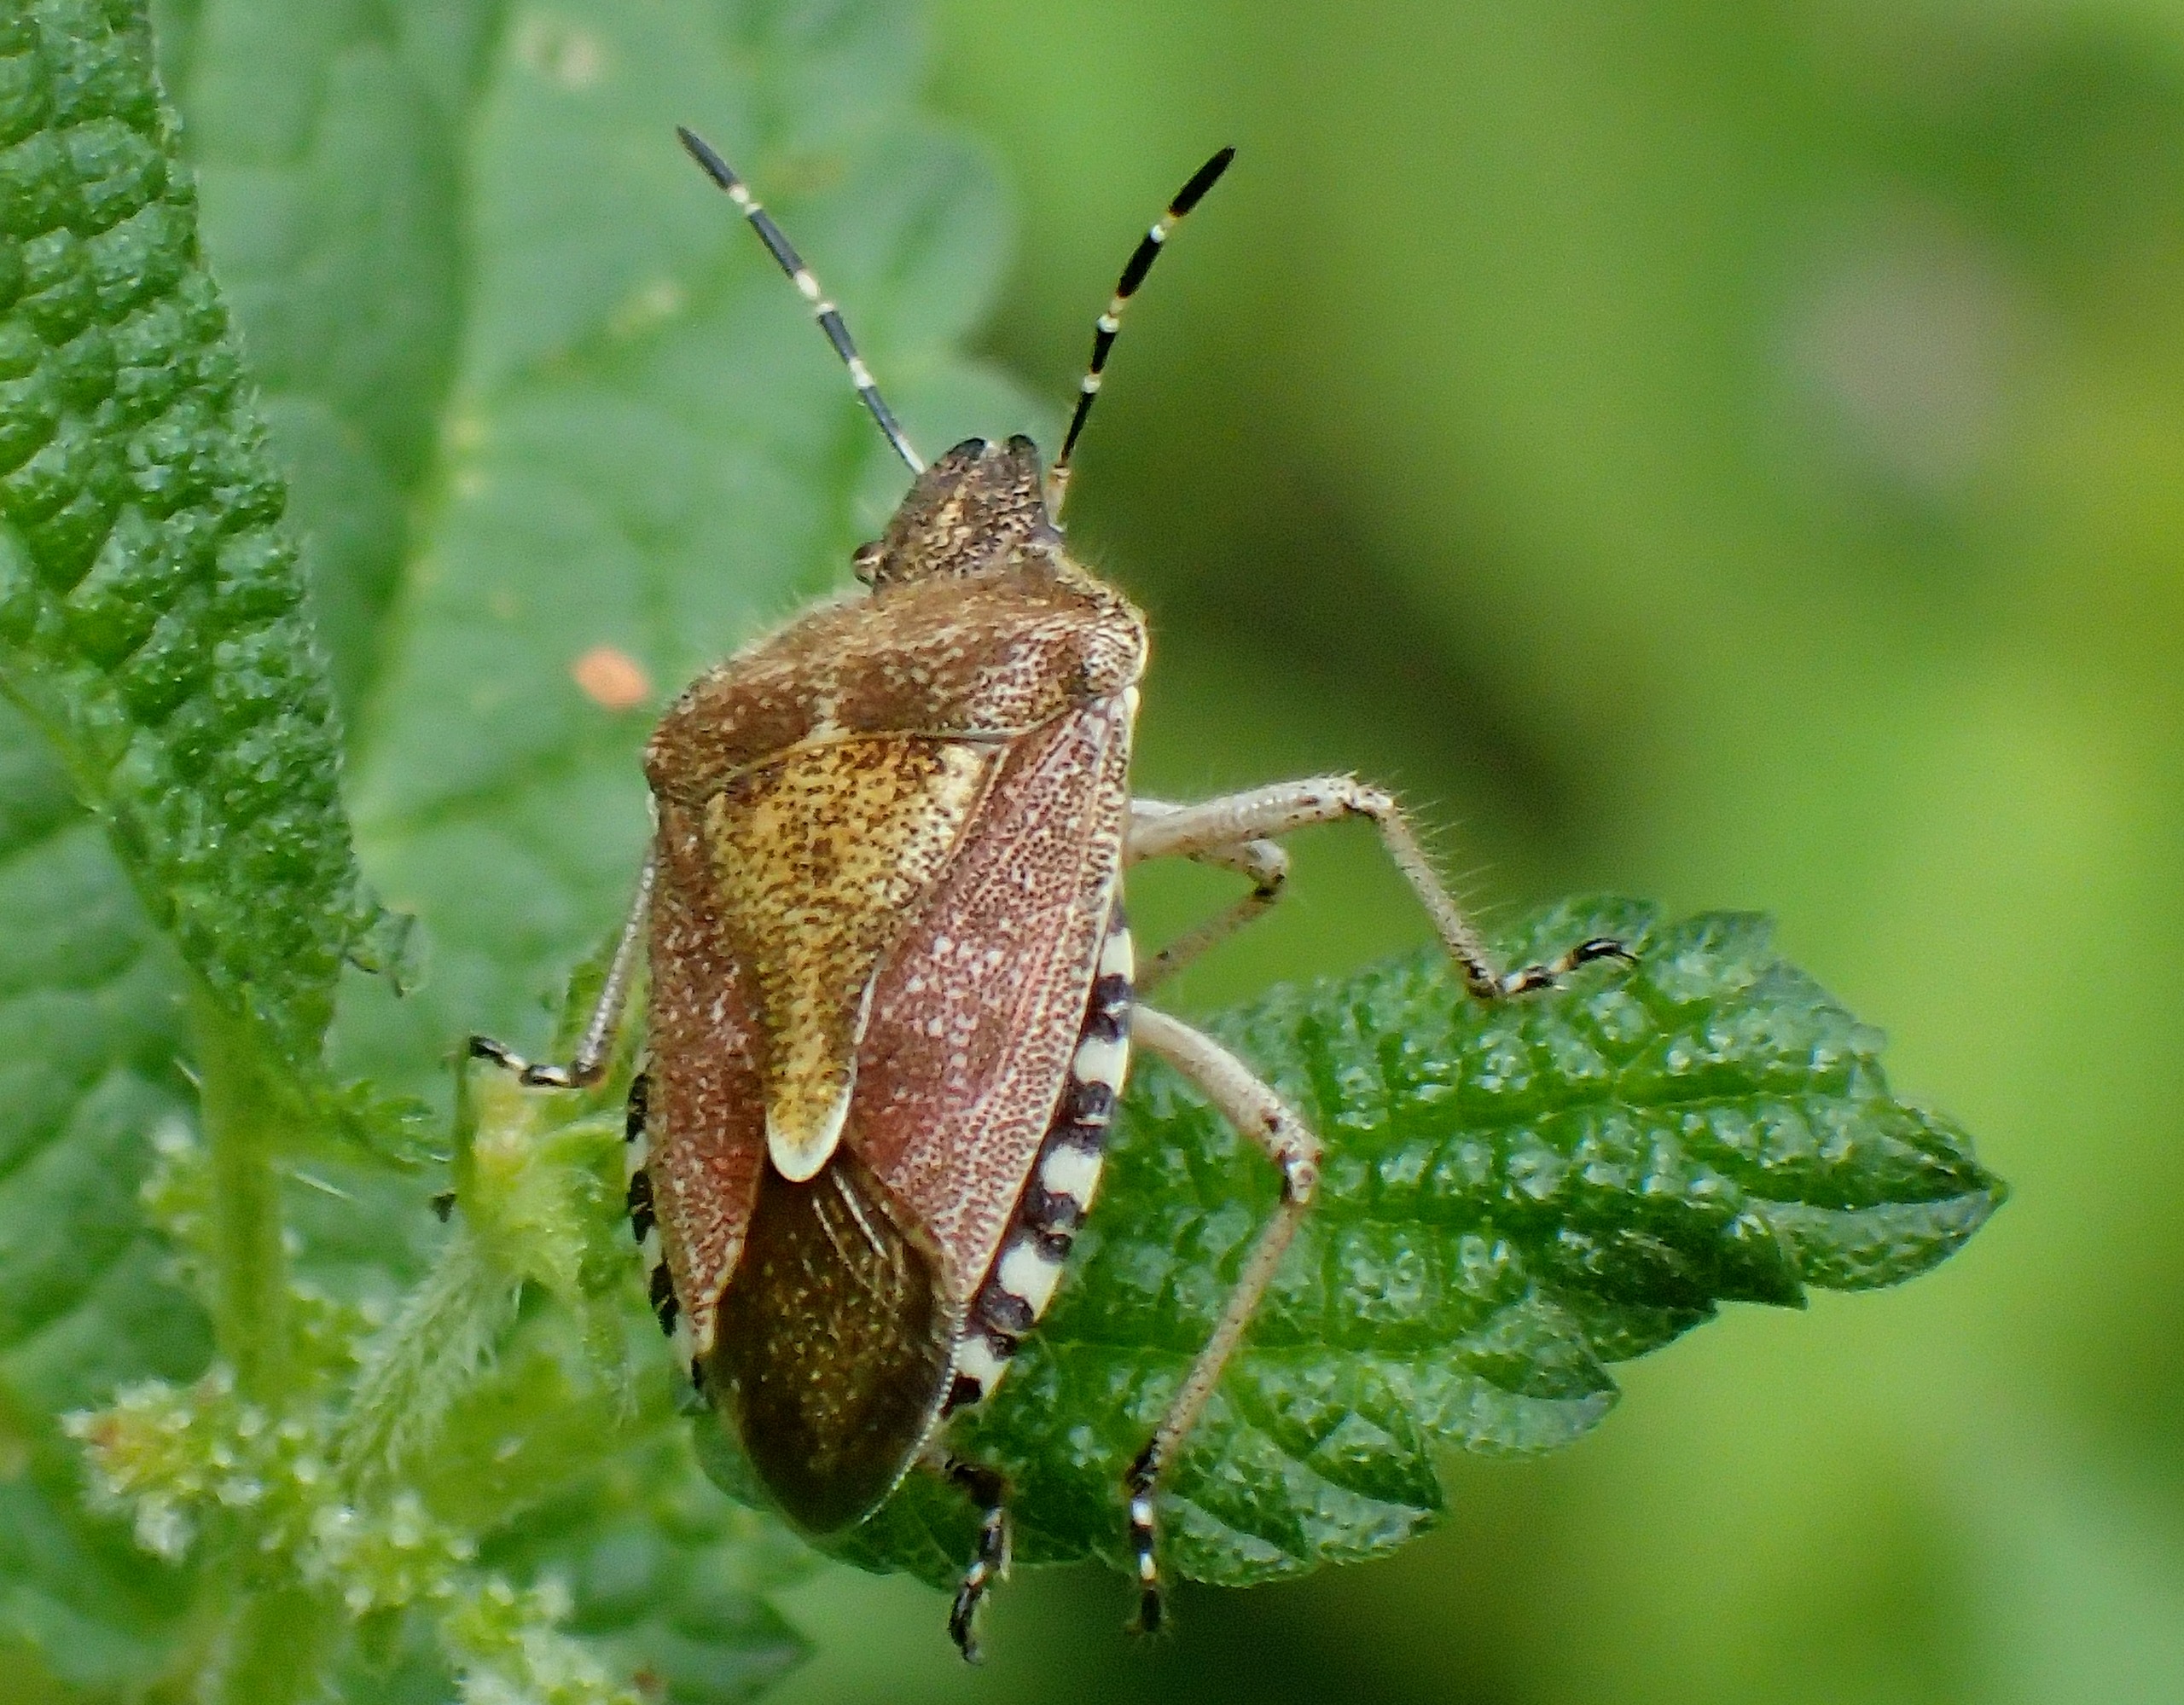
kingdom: Animalia
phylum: Arthropoda
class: Insecta
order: Hemiptera
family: Pentatomidae
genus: Dolycoris
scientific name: Dolycoris baccarum
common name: Almindelig bærtæge
